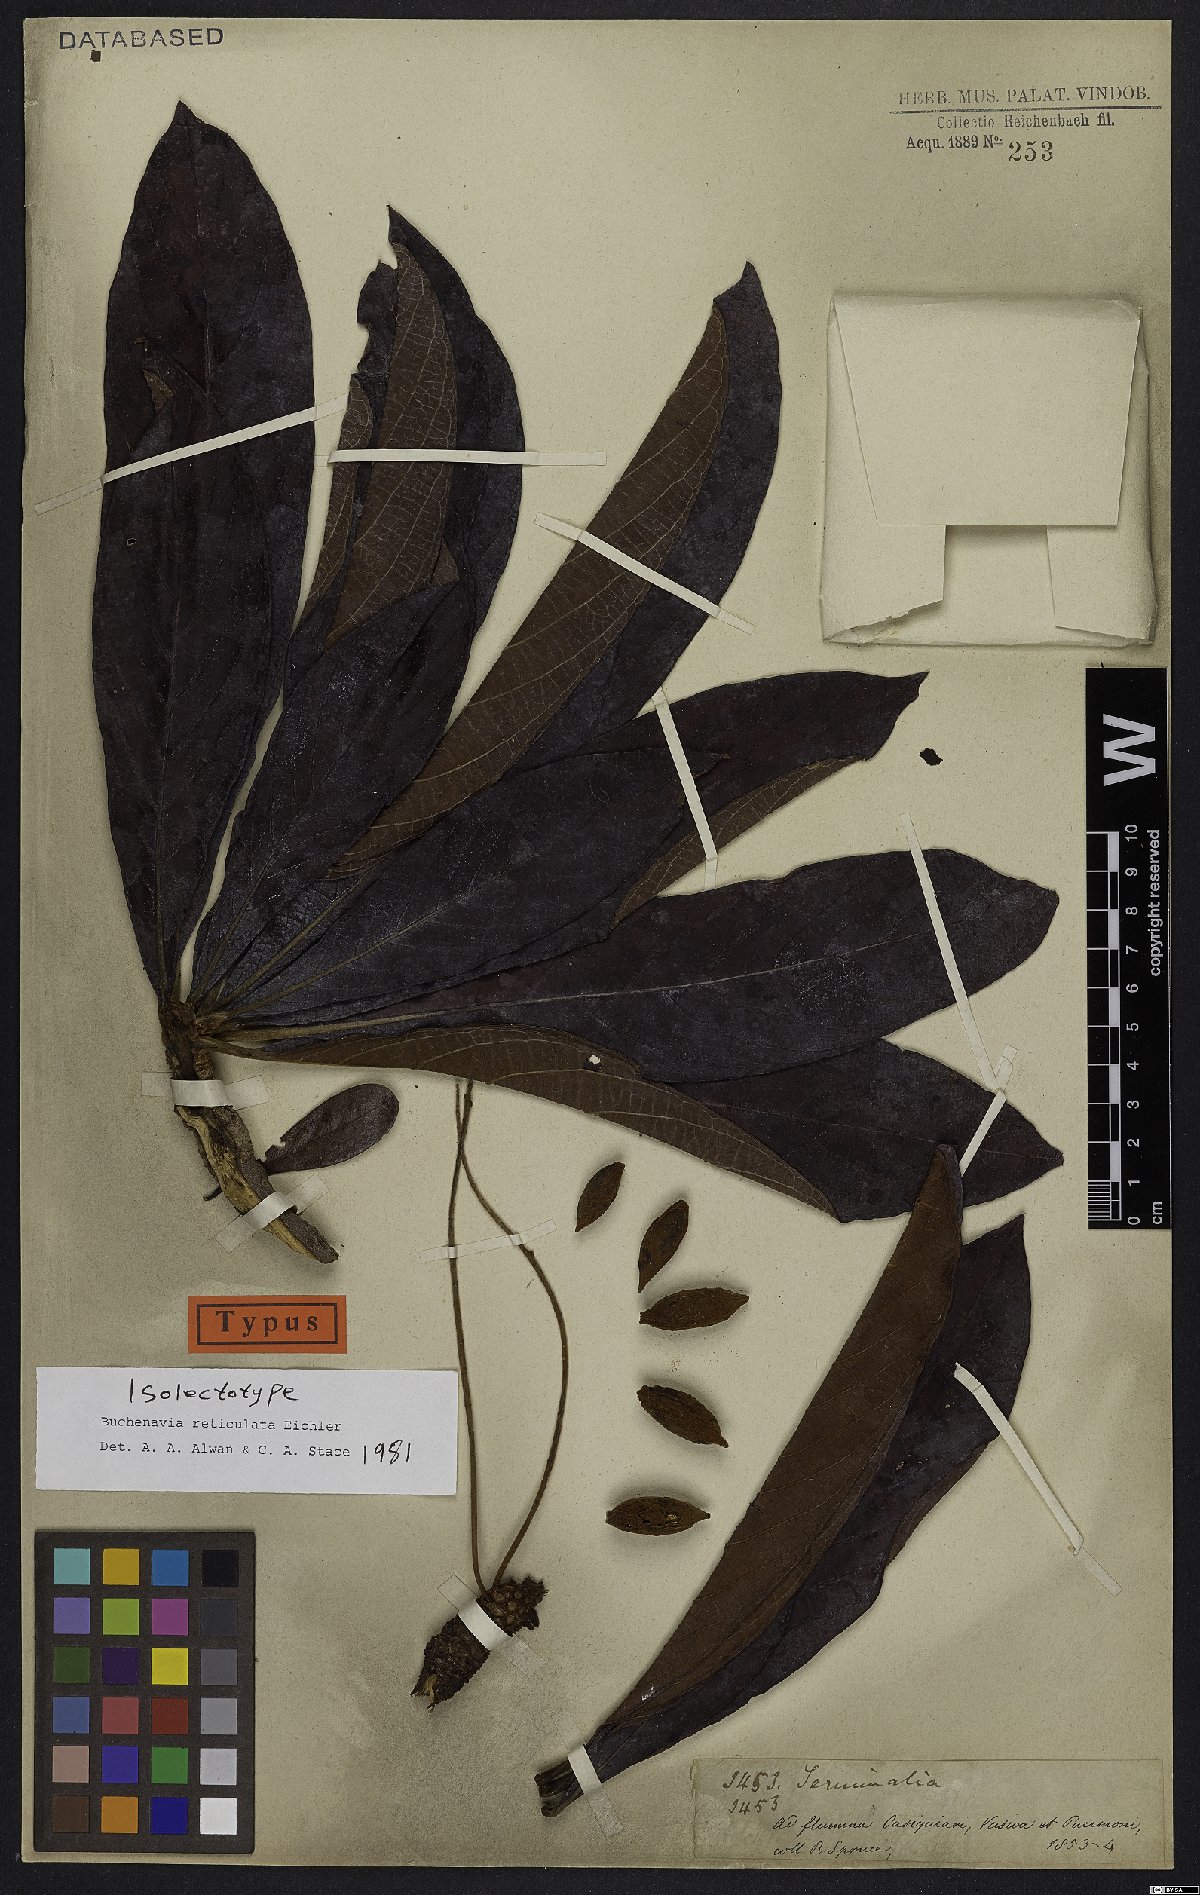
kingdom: Plantae
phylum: Tracheophyta
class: Magnoliopsida
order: Myrtales
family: Combretaceae
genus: Terminalia
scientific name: Terminalia pulcherrima
